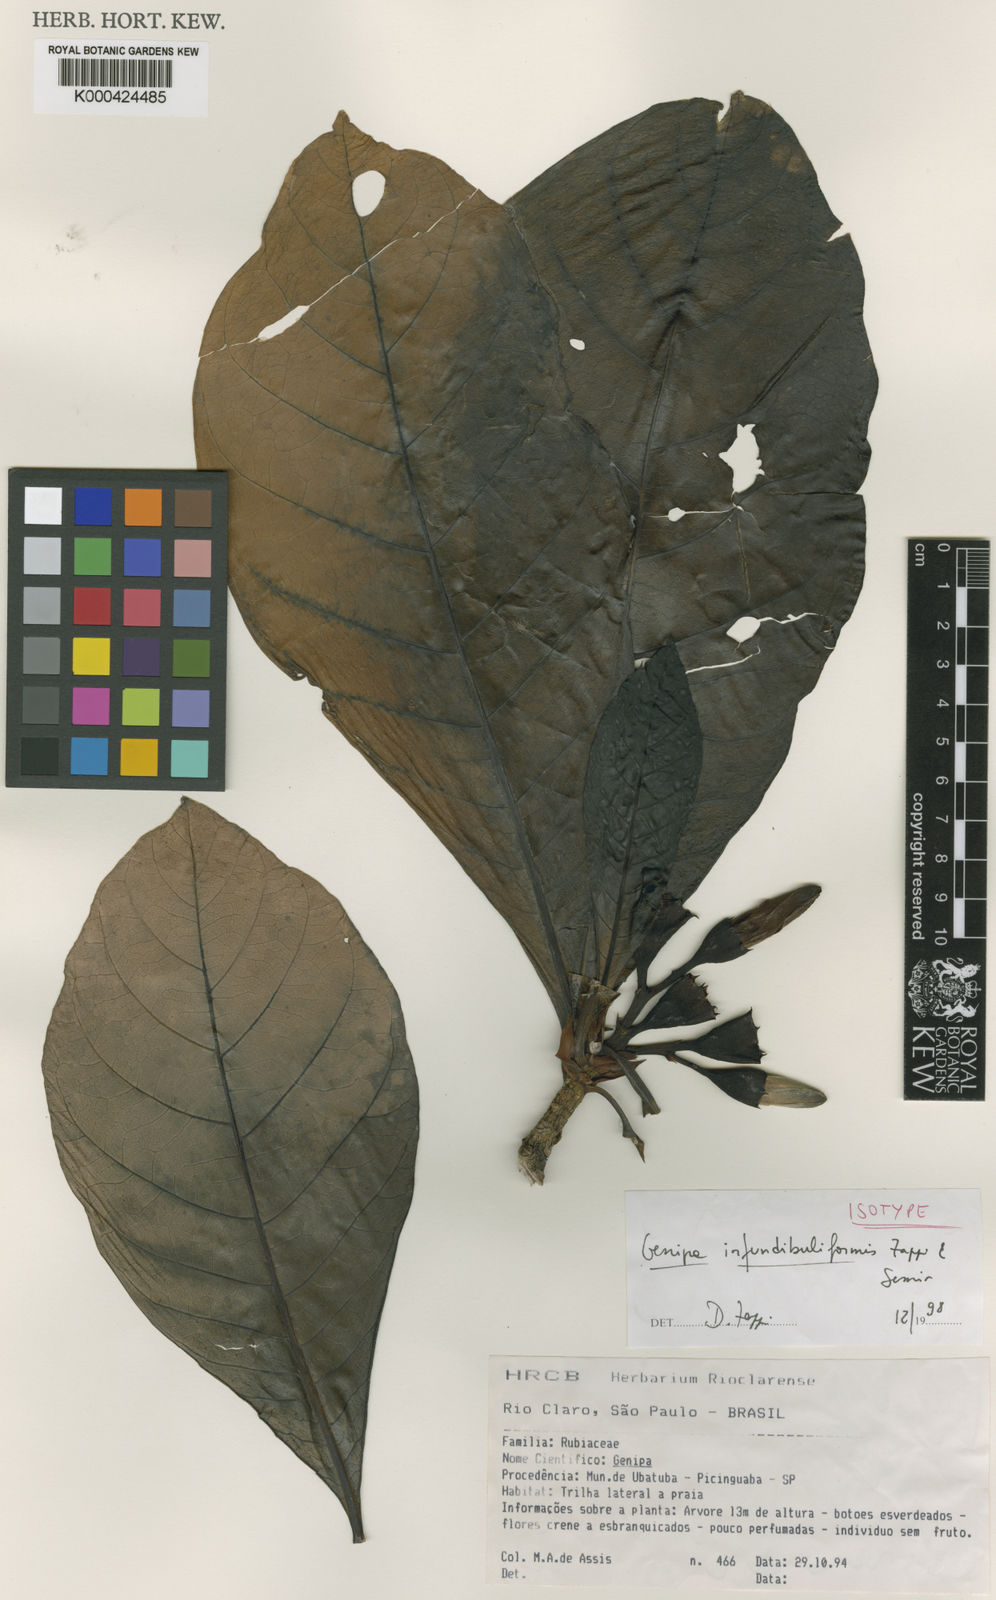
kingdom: Plantae
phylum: Tracheophyta
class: Magnoliopsida
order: Gentianales
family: Rubiaceae
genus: Genipa
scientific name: Genipa infundibuliformis
